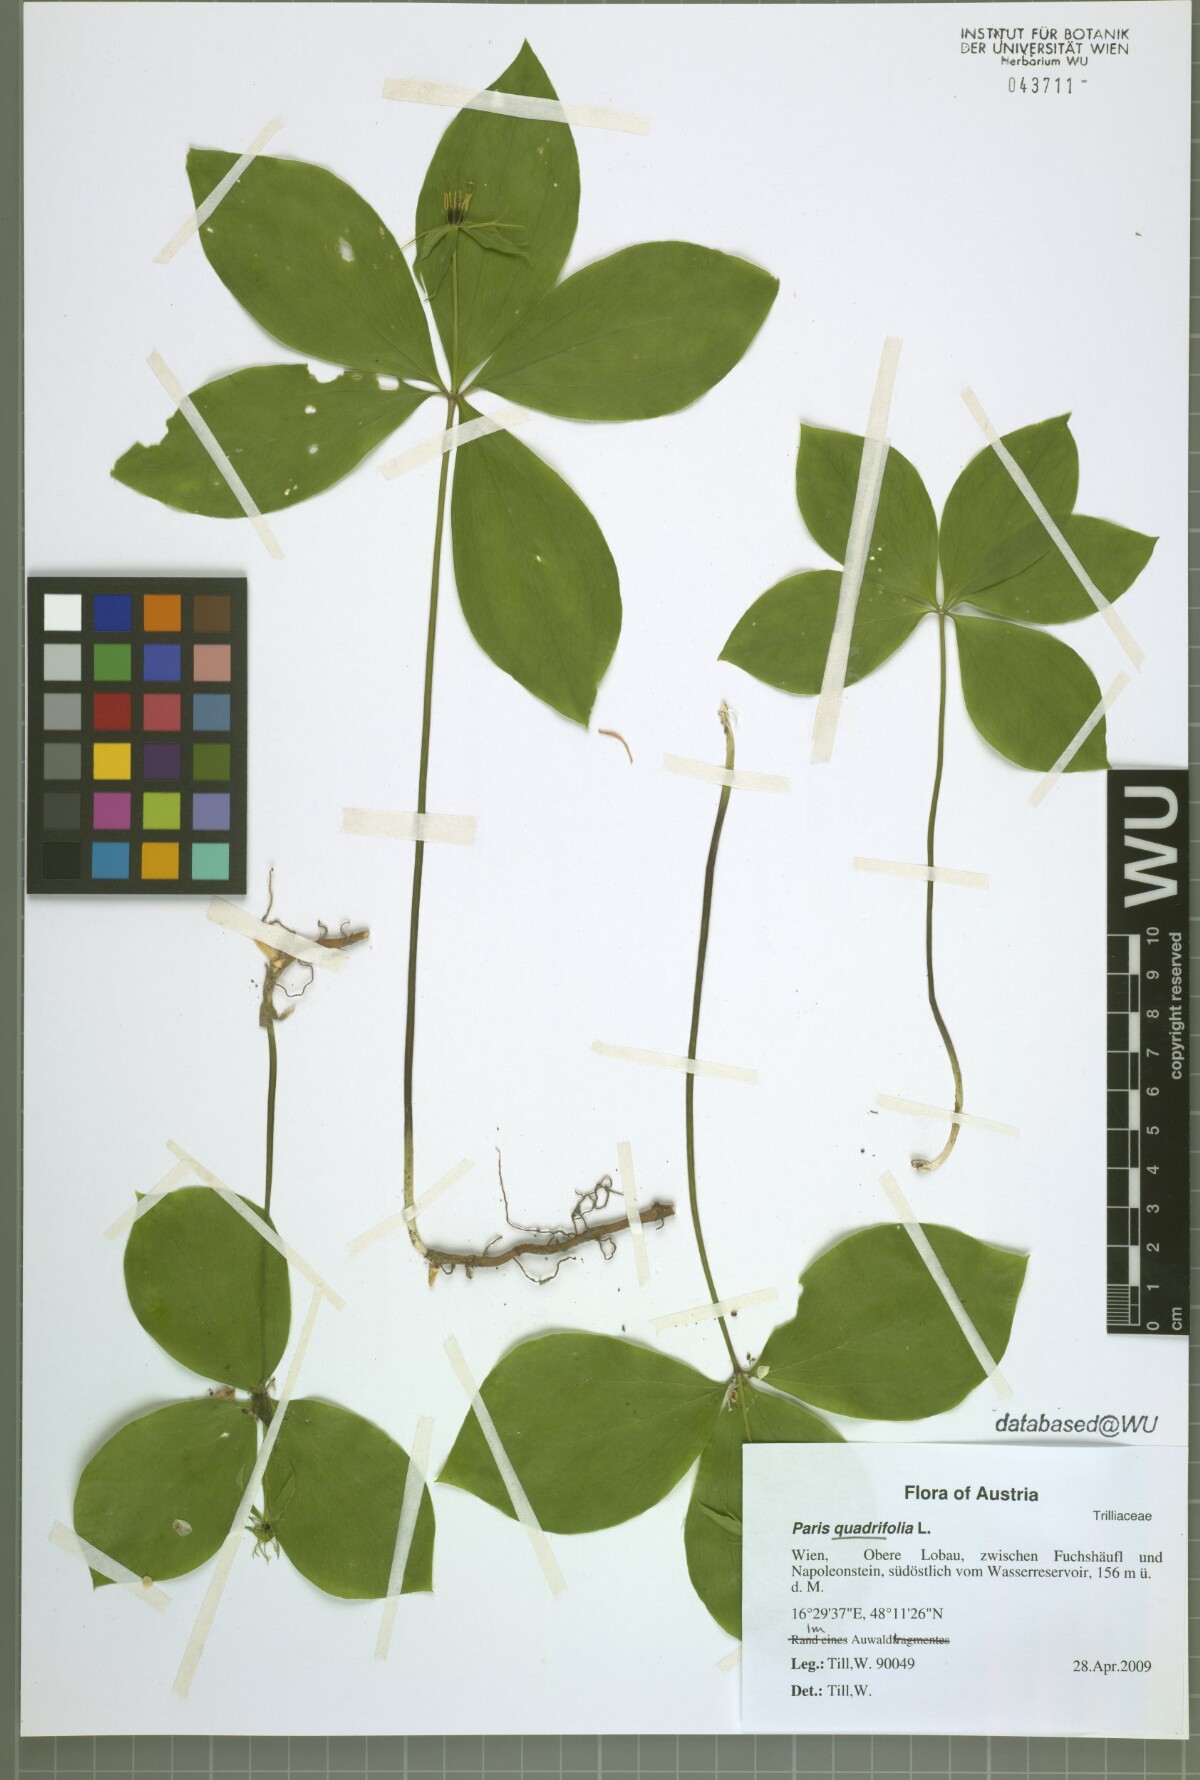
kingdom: Plantae
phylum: Tracheophyta
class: Liliopsida
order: Liliales
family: Melanthiaceae
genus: Paris
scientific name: Paris quadrifolia
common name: Herb-paris
